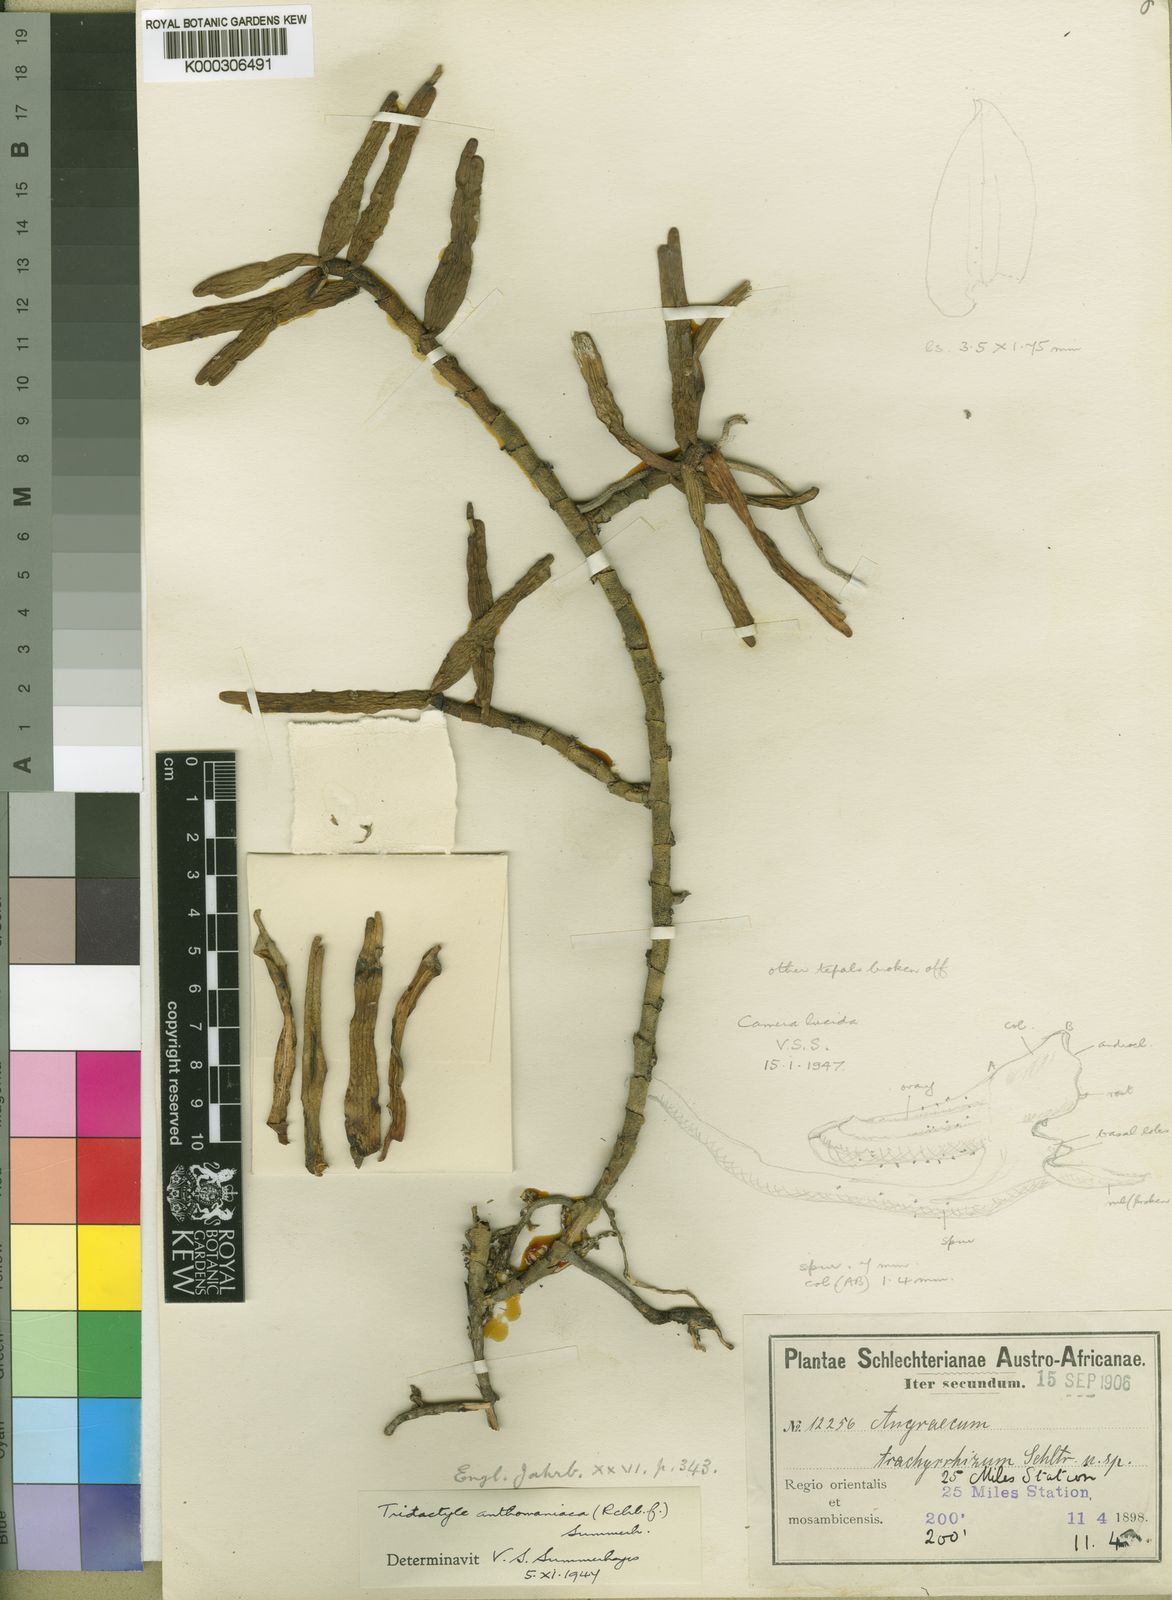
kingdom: Plantae
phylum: Tracheophyta
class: Liliopsida
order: Asparagales
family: Orchidaceae
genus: Tridactyle
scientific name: Tridactyle anthomaniaca
